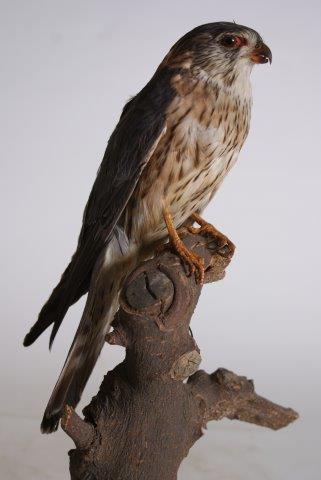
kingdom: Animalia
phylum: Chordata
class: Aves
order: Falconiformes
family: Falconidae
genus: Falco
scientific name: Falco columbarius
